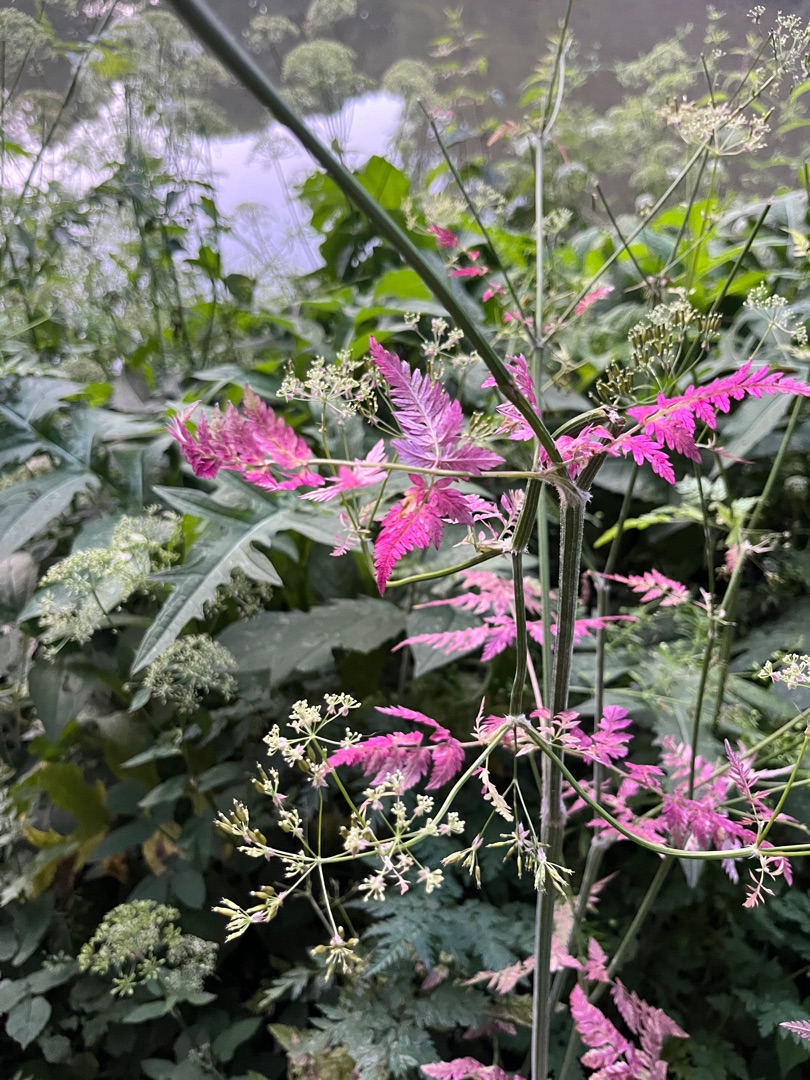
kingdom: Plantae
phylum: Tracheophyta
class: Magnoliopsida
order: Apiales
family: Apiaceae
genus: Anthriscus
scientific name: Anthriscus sylvestris
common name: Vild kørvel
